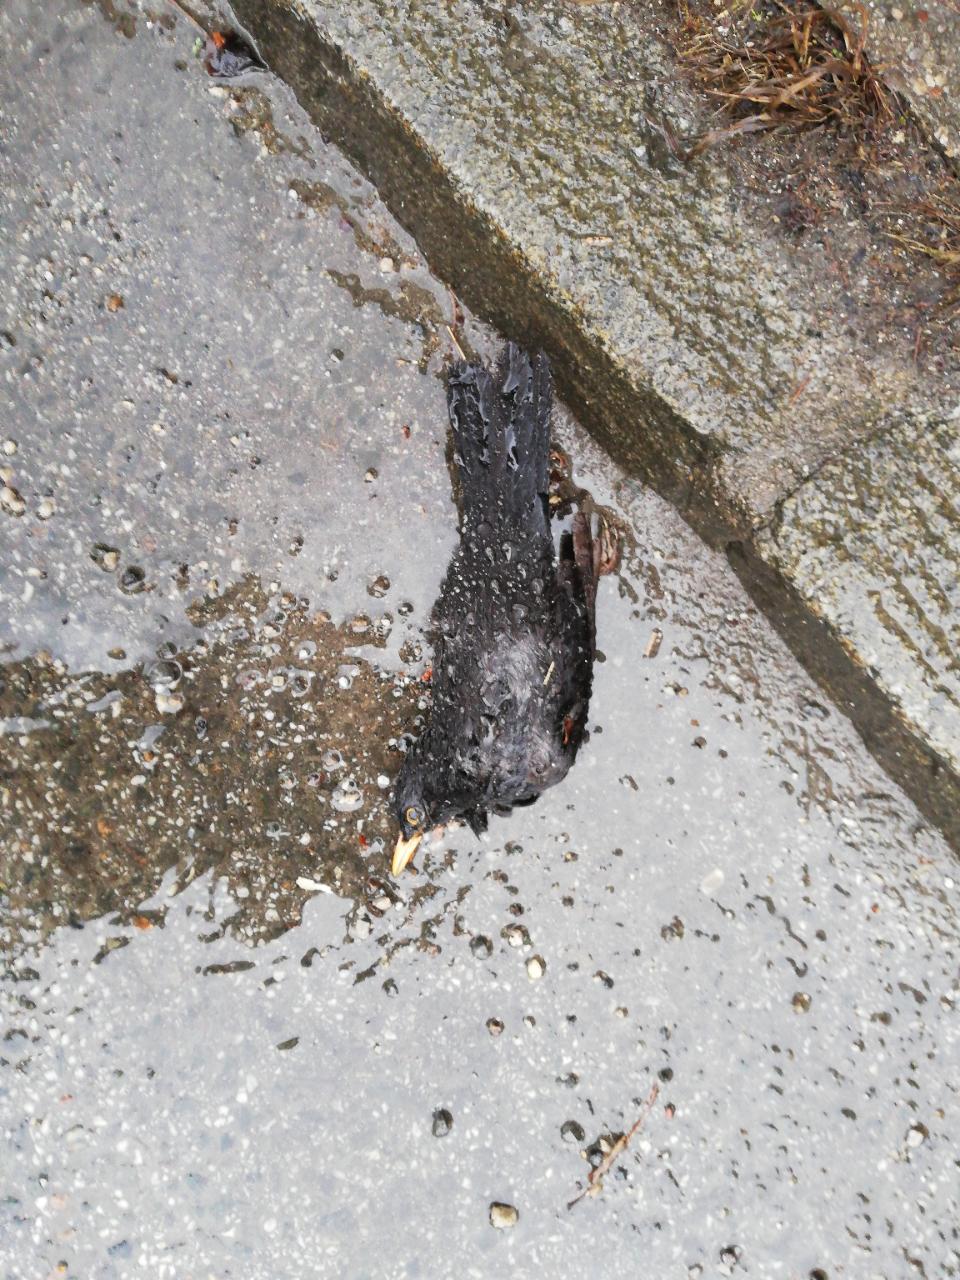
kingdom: Animalia
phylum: Chordata
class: Aves
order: Passeriformes
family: Turdidae
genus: Turdus
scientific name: Turdus merula
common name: Common blackbird
